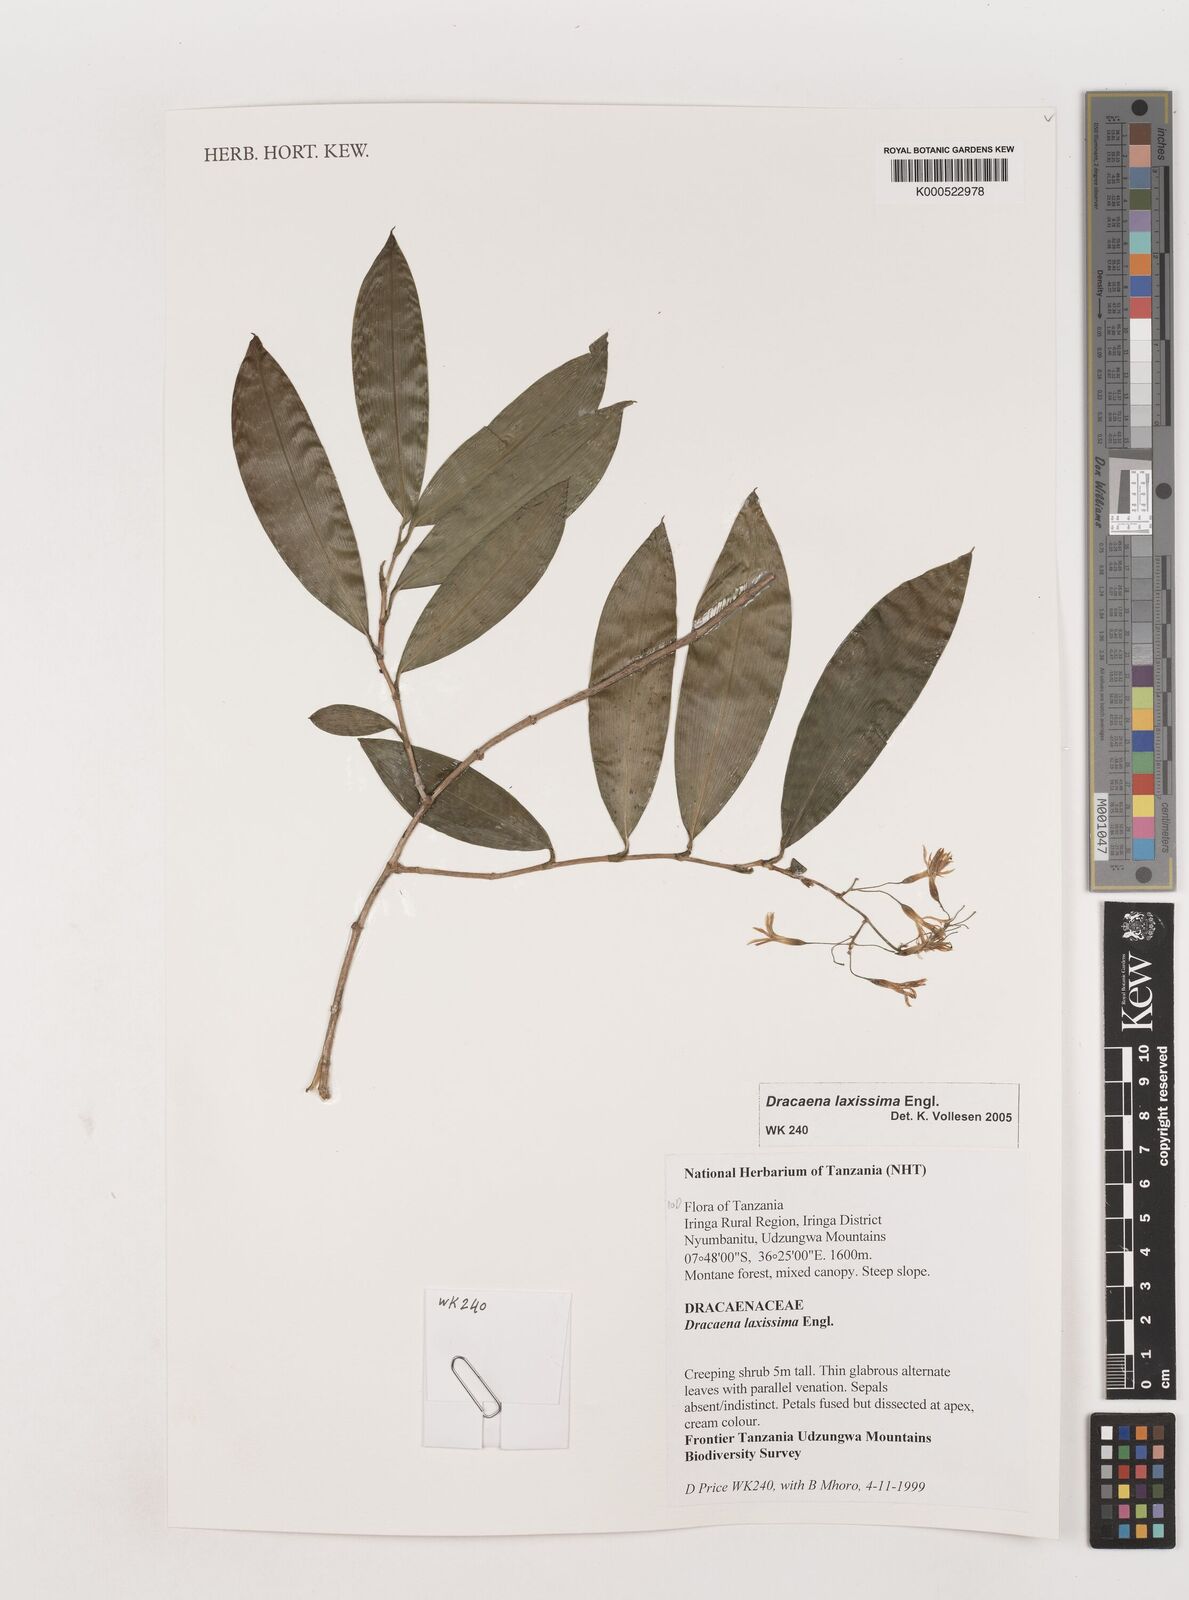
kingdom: Plantae
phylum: Tracheophyta
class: Liliopsida
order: Asparagales
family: Asparagaceae
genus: Dracaena
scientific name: Dracaena laxissima
